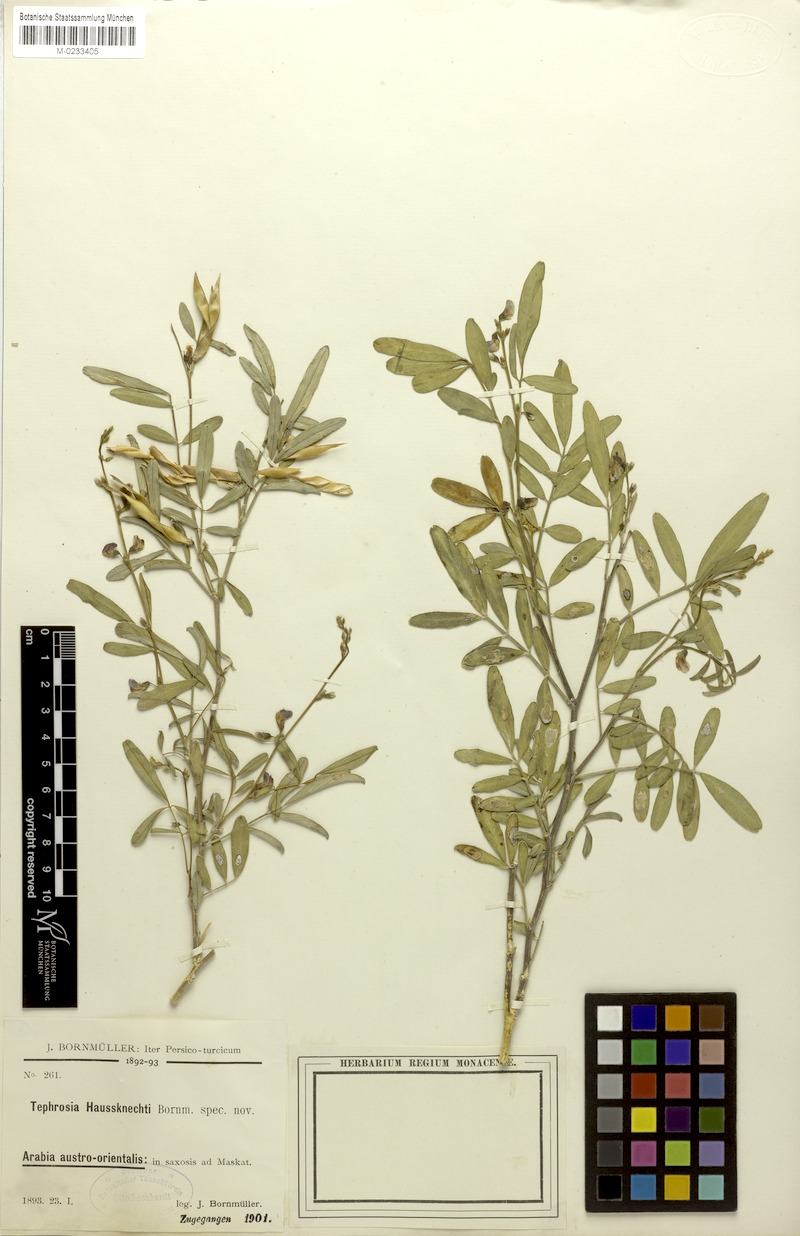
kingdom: Plantae
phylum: Tracheophyta
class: Magnoliopsida
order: Fabales
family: Fabaceae
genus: Tephrosia
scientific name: Tephrosia haussknechtii
